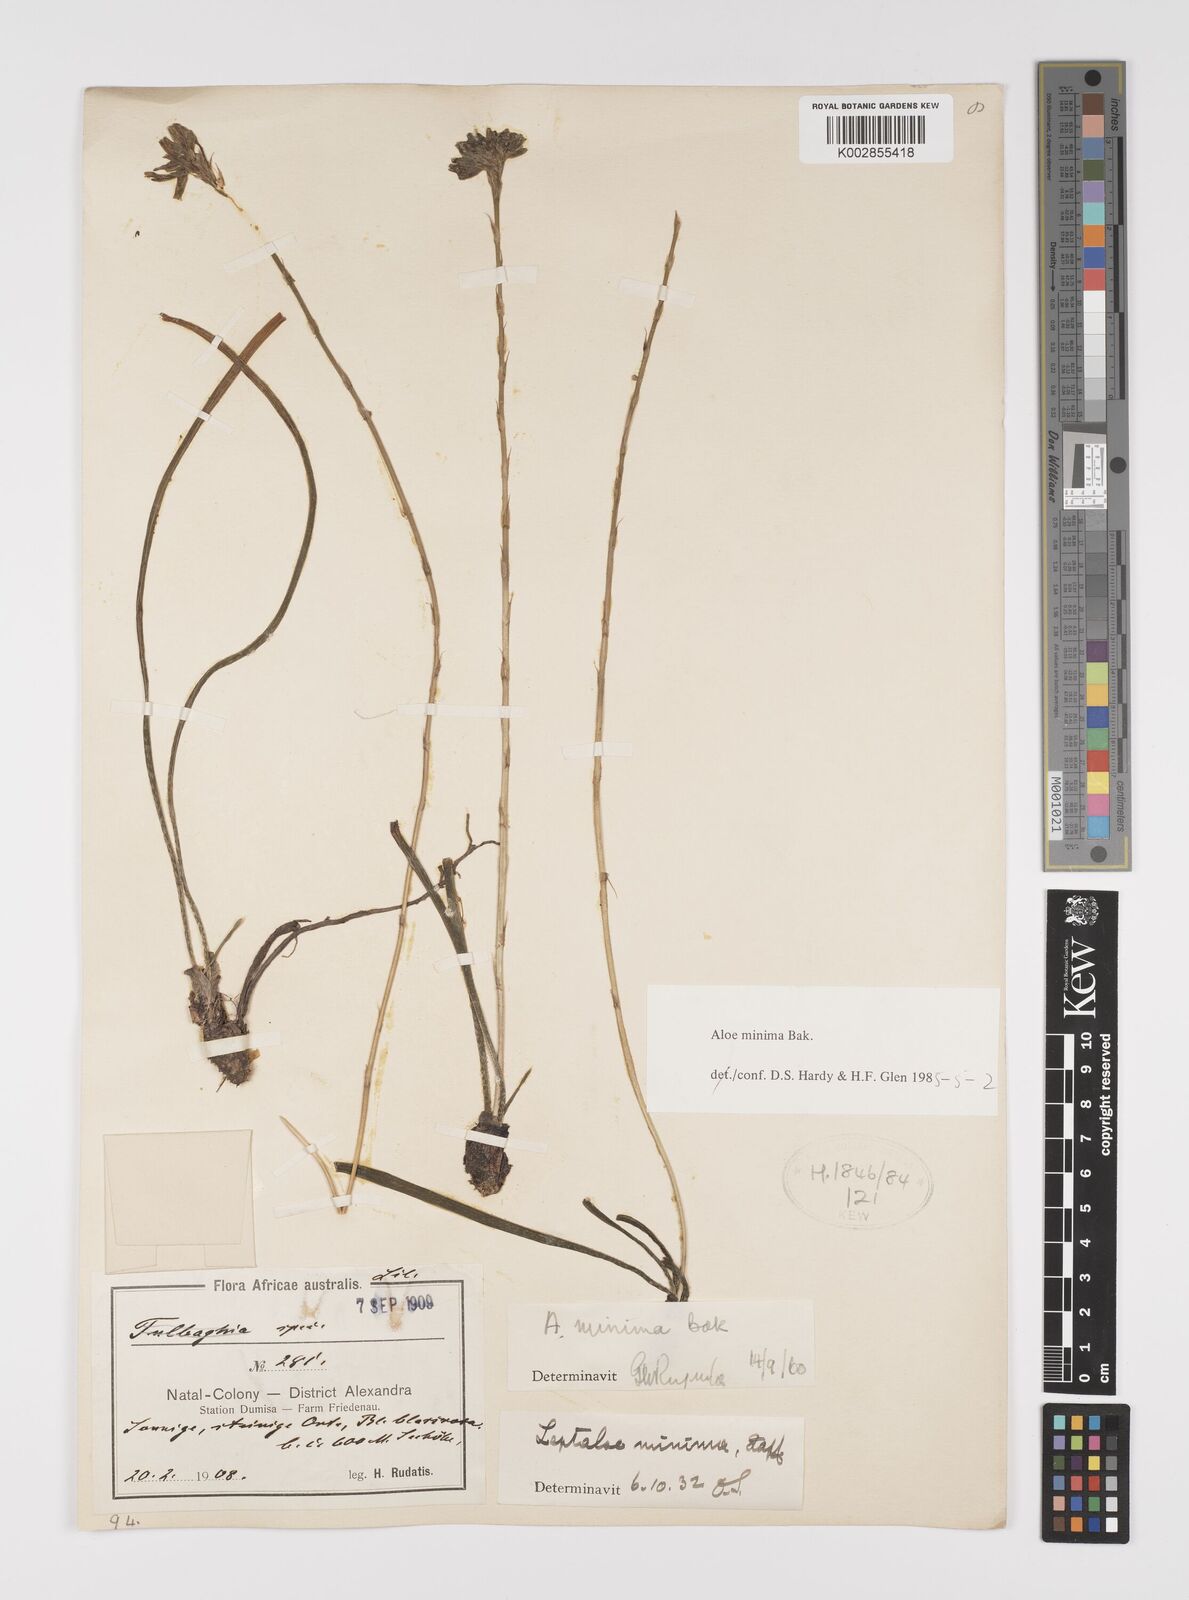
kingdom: Plantae
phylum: Tracheophyta
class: Liliopsida
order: Asparagales
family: Asphodelaceae
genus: Aloe
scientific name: Aloe minima
